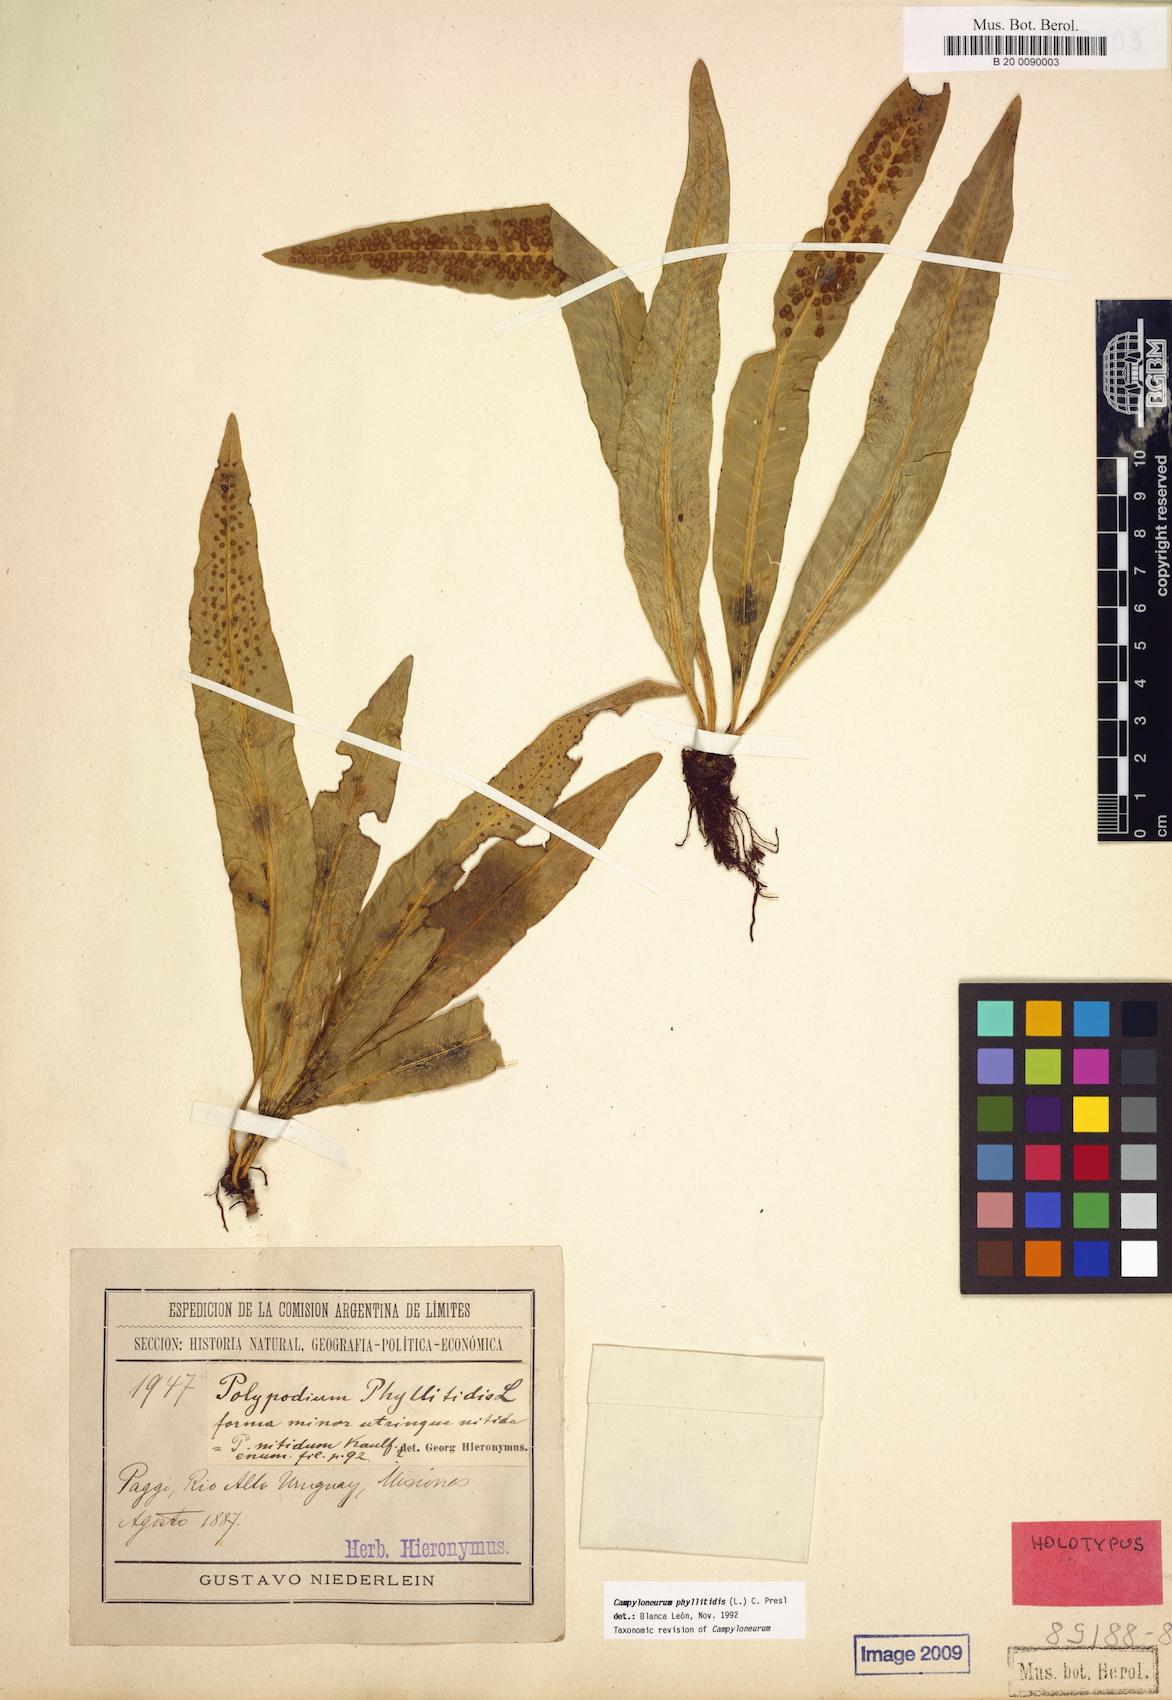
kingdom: Plantae
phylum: Tracheophyta
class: Polypodiopsida
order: Polypodiales
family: Polypodiaceae
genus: Campyloneurum
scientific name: Campyloneurum phyllitidis
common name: Cow-tongue fern
